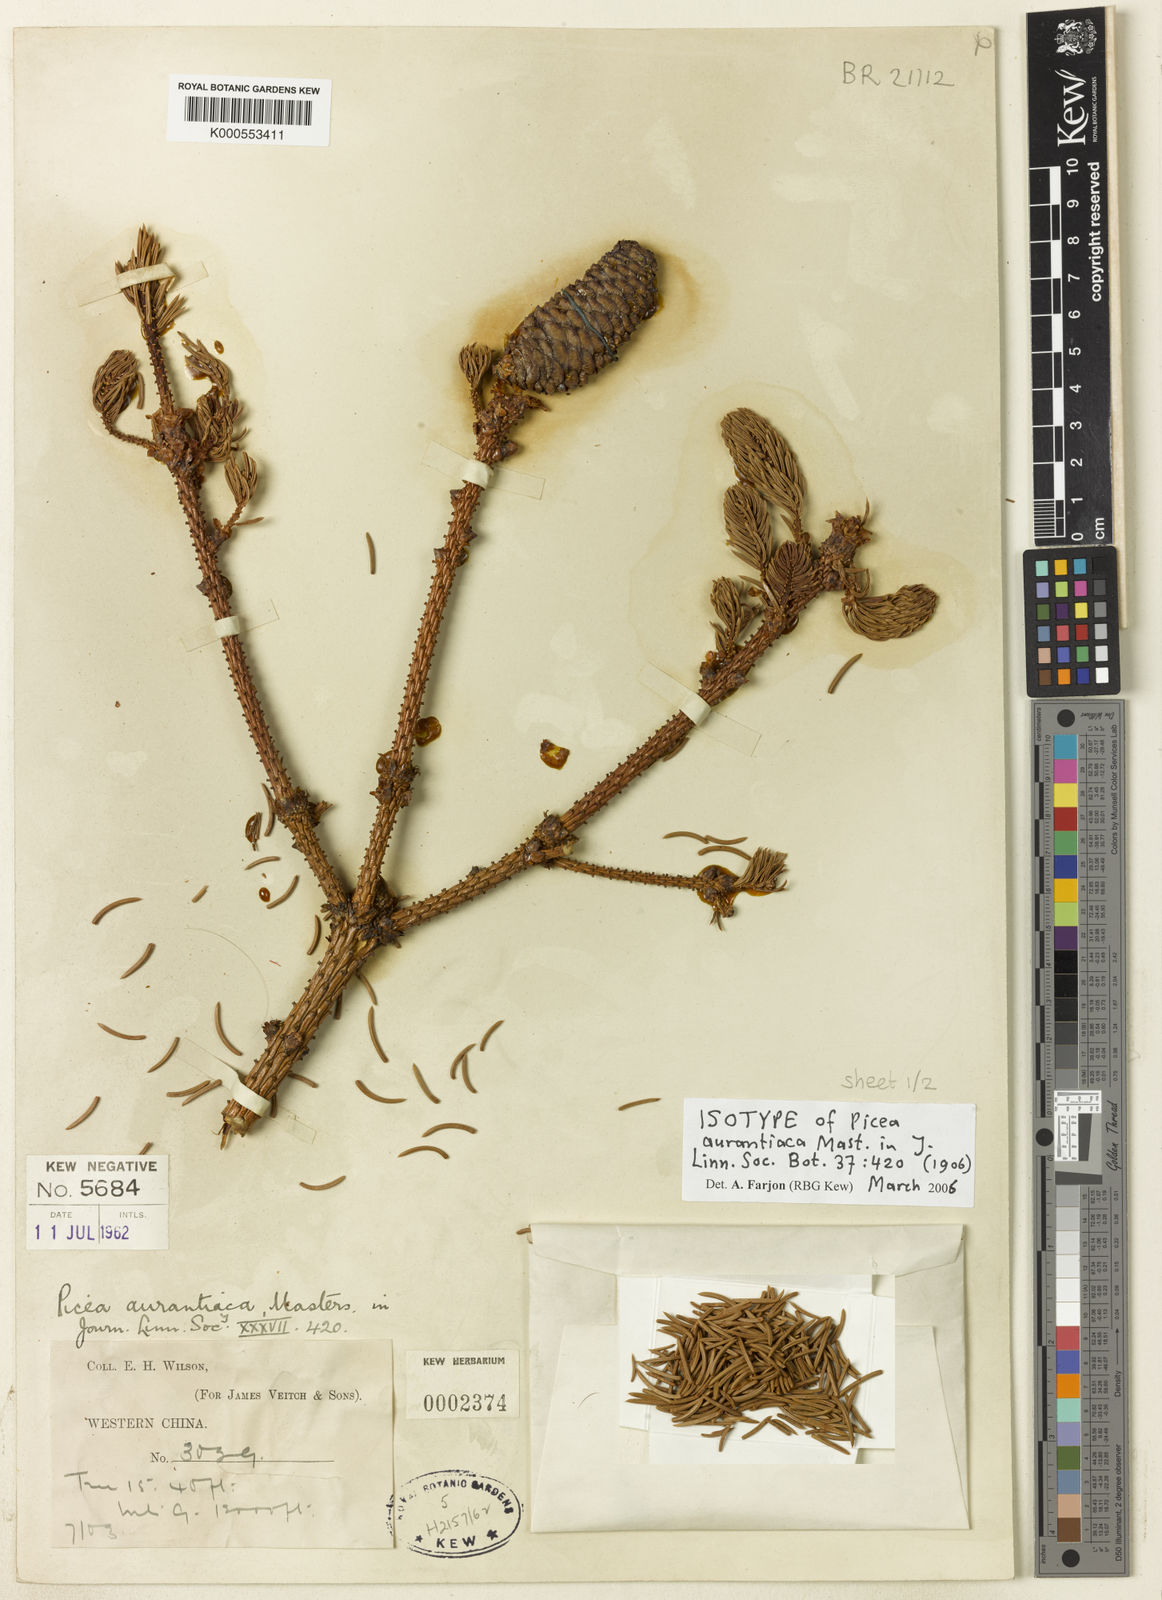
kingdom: Plantae
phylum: Tracheophyta
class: Pinopsida
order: Pinales
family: Pinaceae
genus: Picea
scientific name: Picea aurantiaca
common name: Orange spruce
